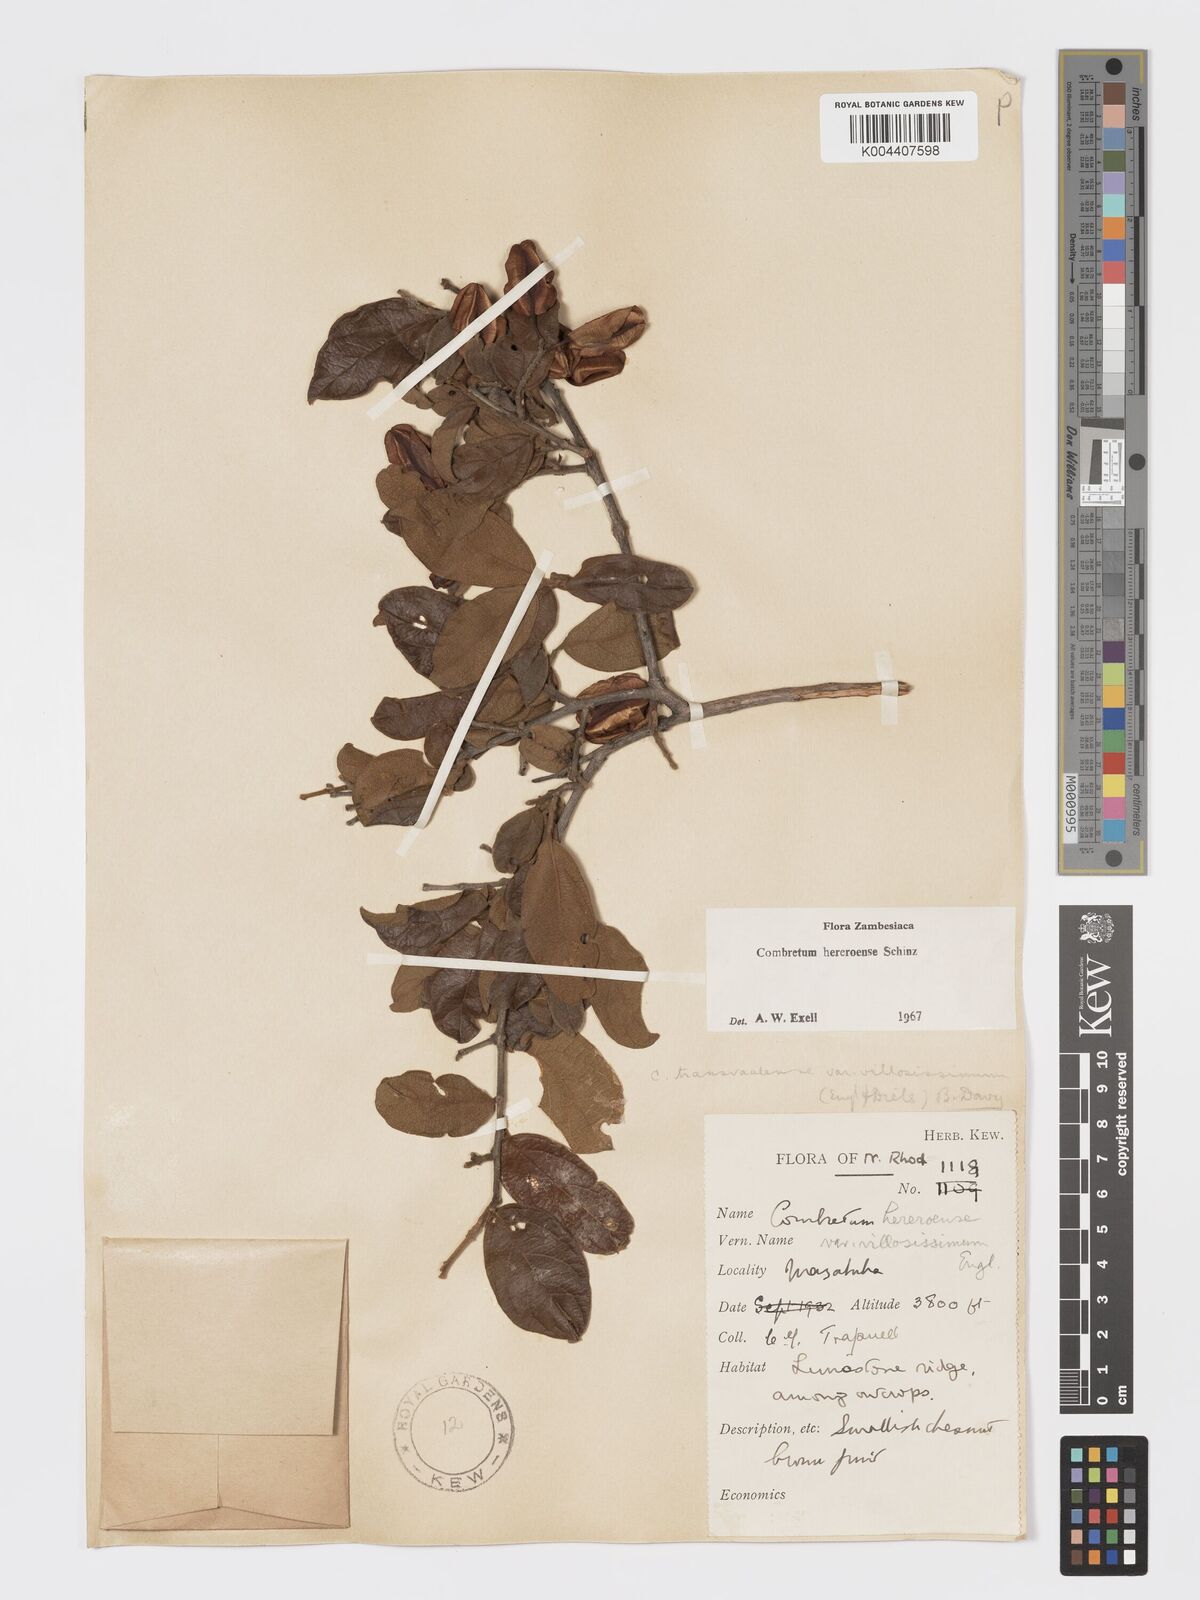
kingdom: Plantae
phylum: Tracheophyta
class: Magnoliopsida
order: Myrtales
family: Combretaceae
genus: Combretum
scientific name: Combretum hereroense
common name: Russet bushwillow
